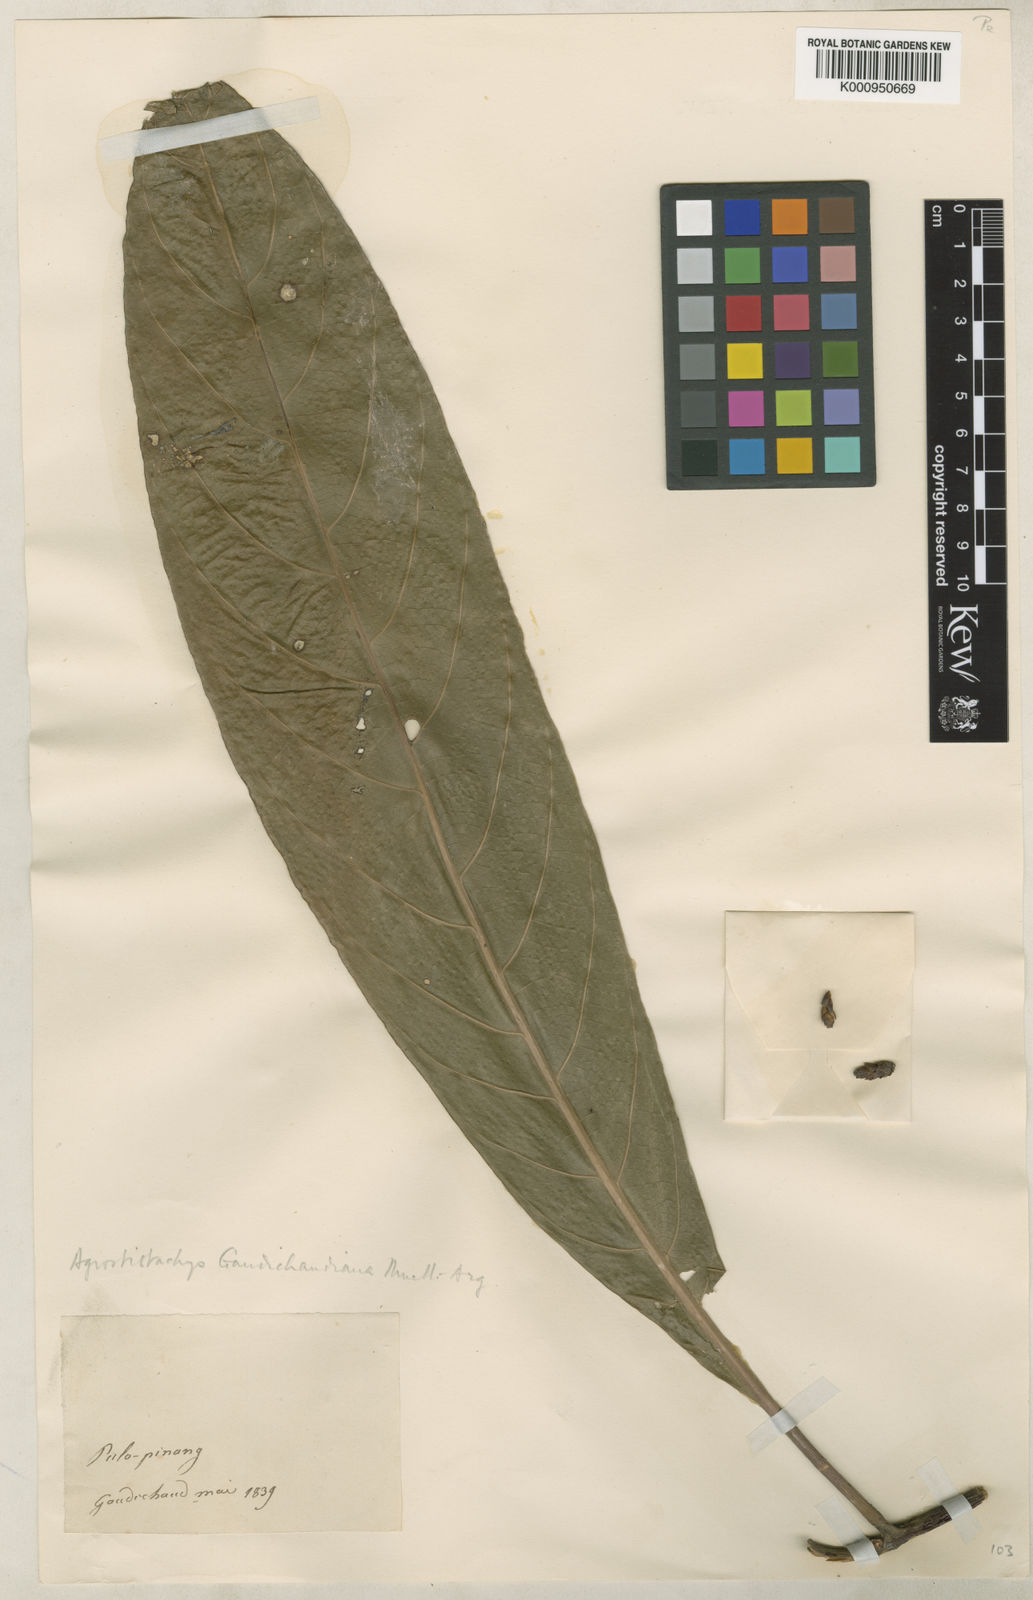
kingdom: Plantae
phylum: Tracheophyta
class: Magnoliopsida
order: Malpighiales
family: Euphorbiaceae
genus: Agrostistachys
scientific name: Agrostistachys
